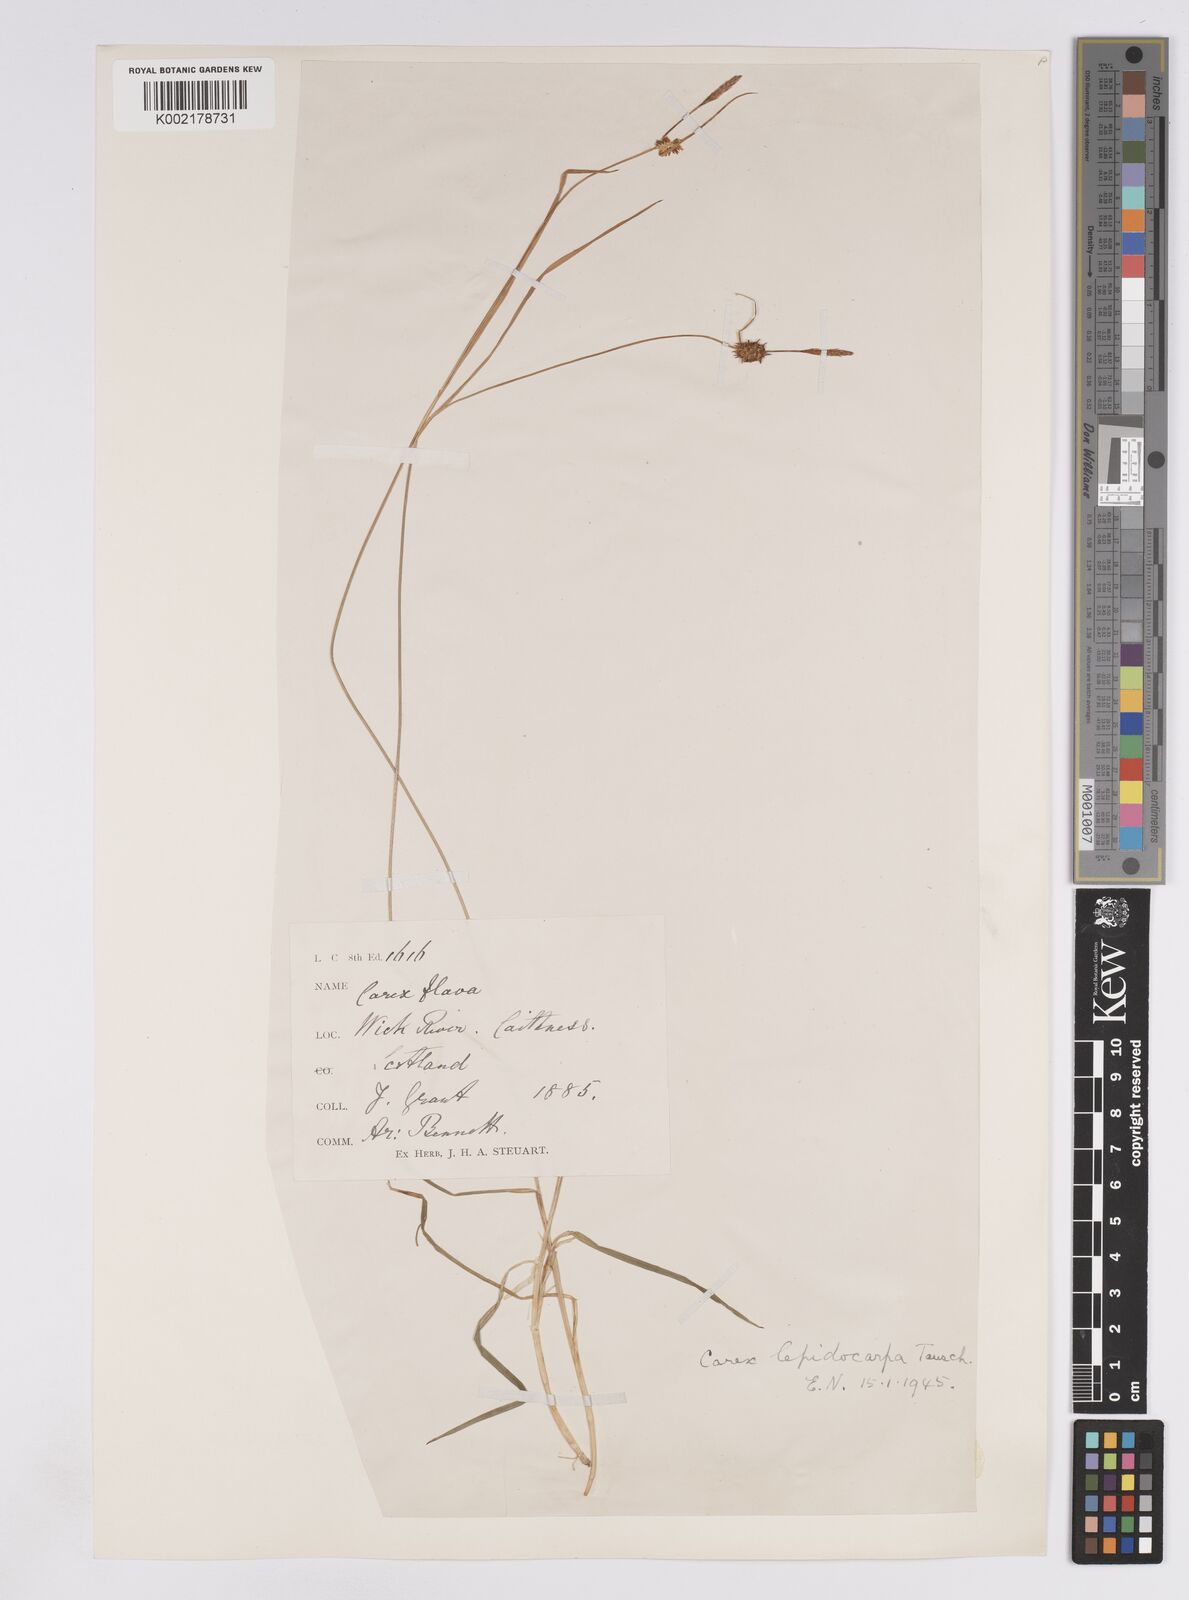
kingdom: Plantae
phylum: Tracheophyta
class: Liliopsida
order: Poales
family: Cyperaceae
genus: Carex
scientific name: Carex lepidocarpa
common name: Long-stalked yellow-sedge
